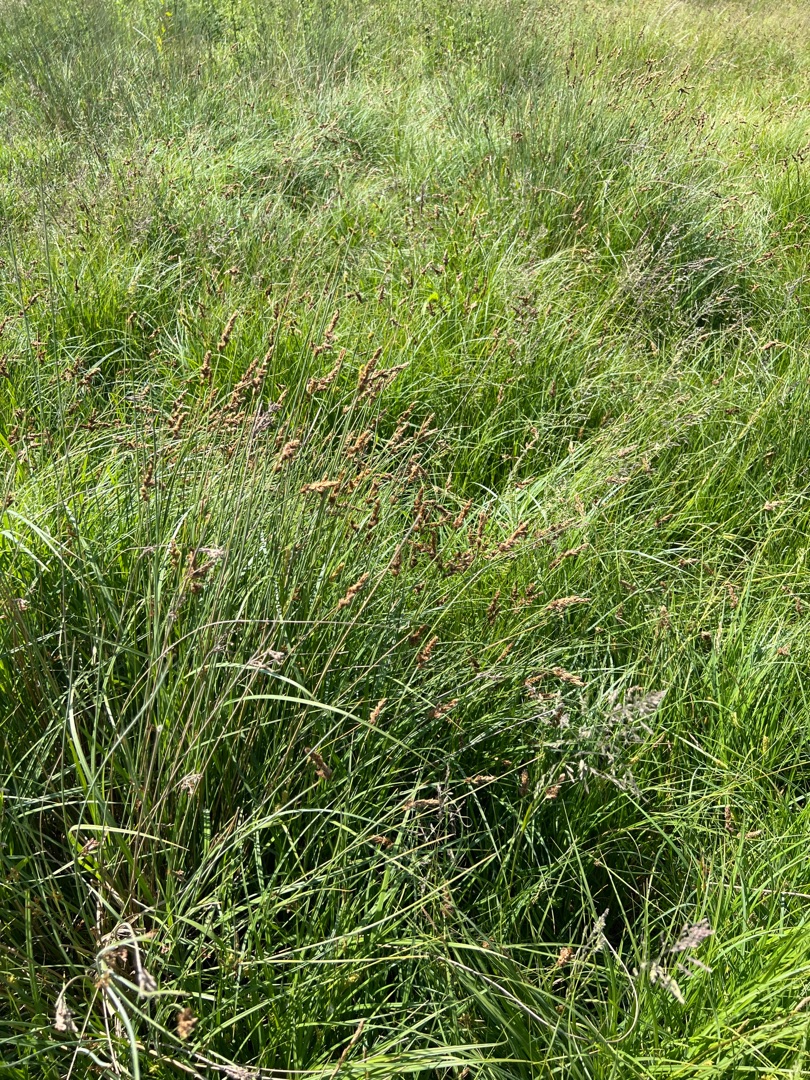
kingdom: Plantae
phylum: Tracheophyta
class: Liliopsida
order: Poales
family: Cyperaceae
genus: Carex
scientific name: Carex disticha
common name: Toradet star
